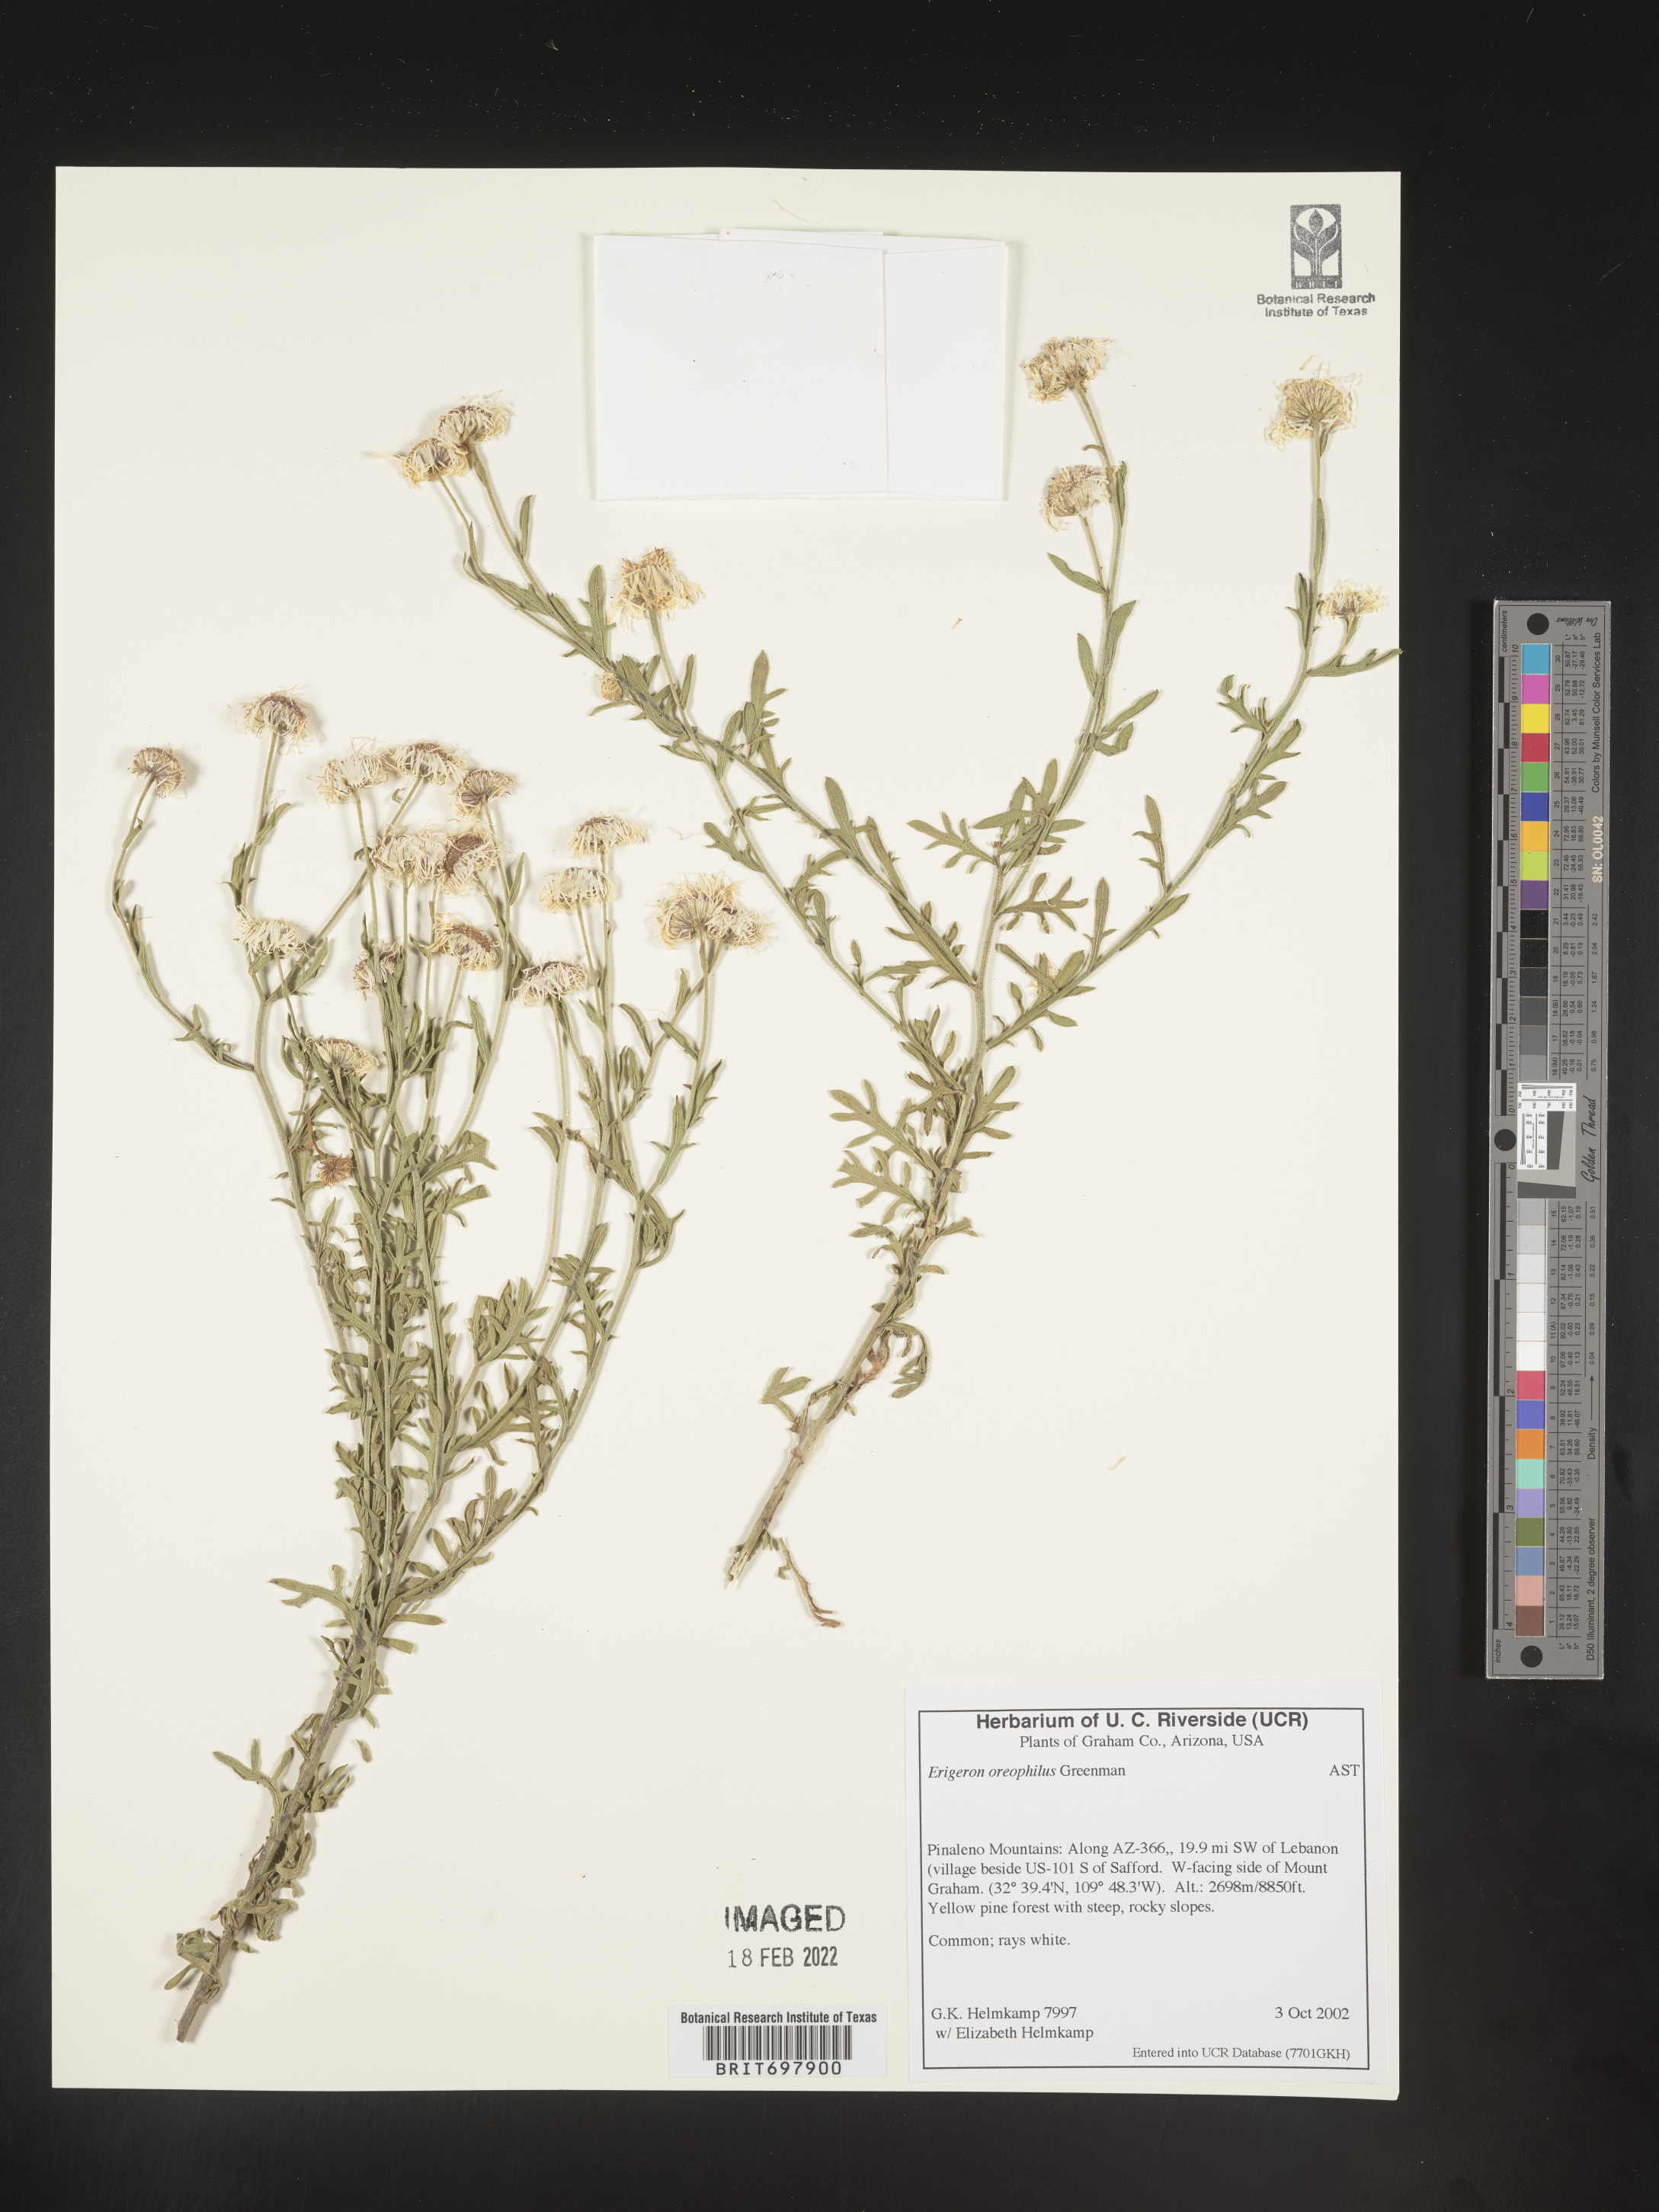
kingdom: Plantae
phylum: Tracheophyta
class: Magnoliopsida
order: Asterales
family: Asteraceae
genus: Erigeron
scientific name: Erigeron oreophilus
